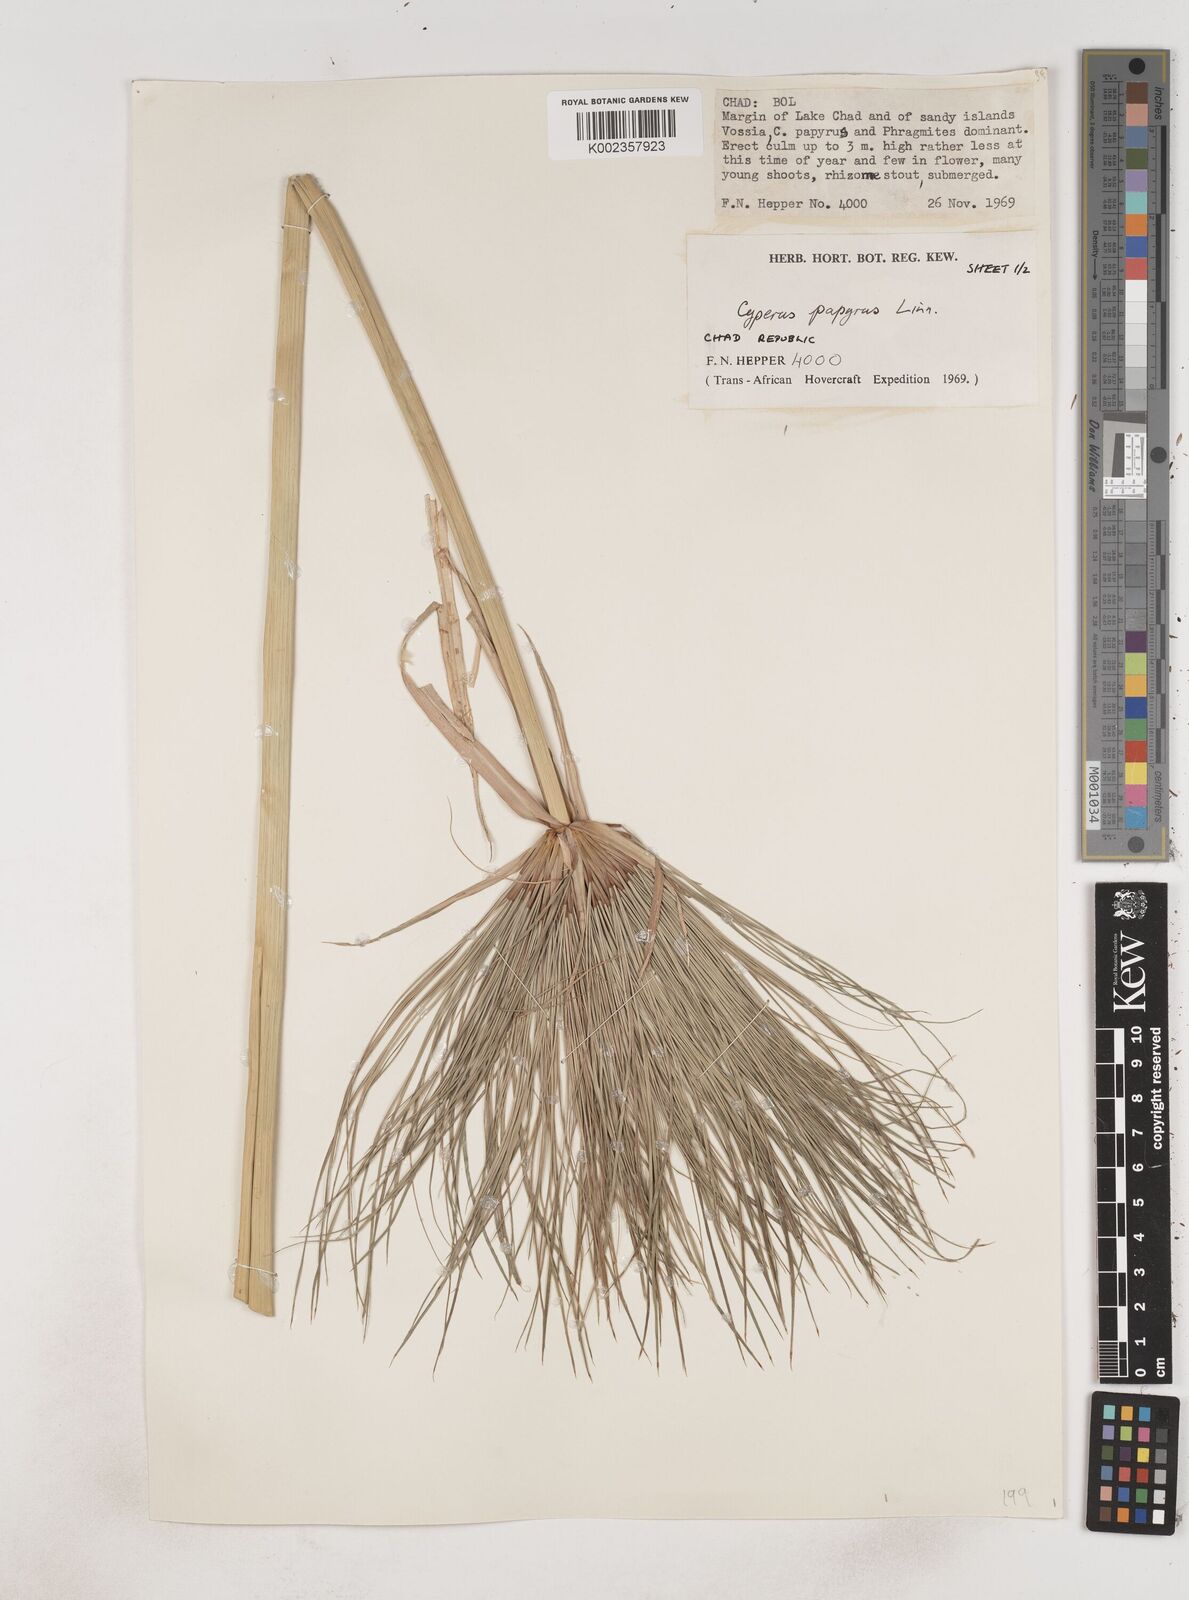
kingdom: Plantae
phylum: Tracheophyta
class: Liliopsida
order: Poales
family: Cyperaceae
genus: Cyperus
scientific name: Cyperus papyrus
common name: Papyrus
